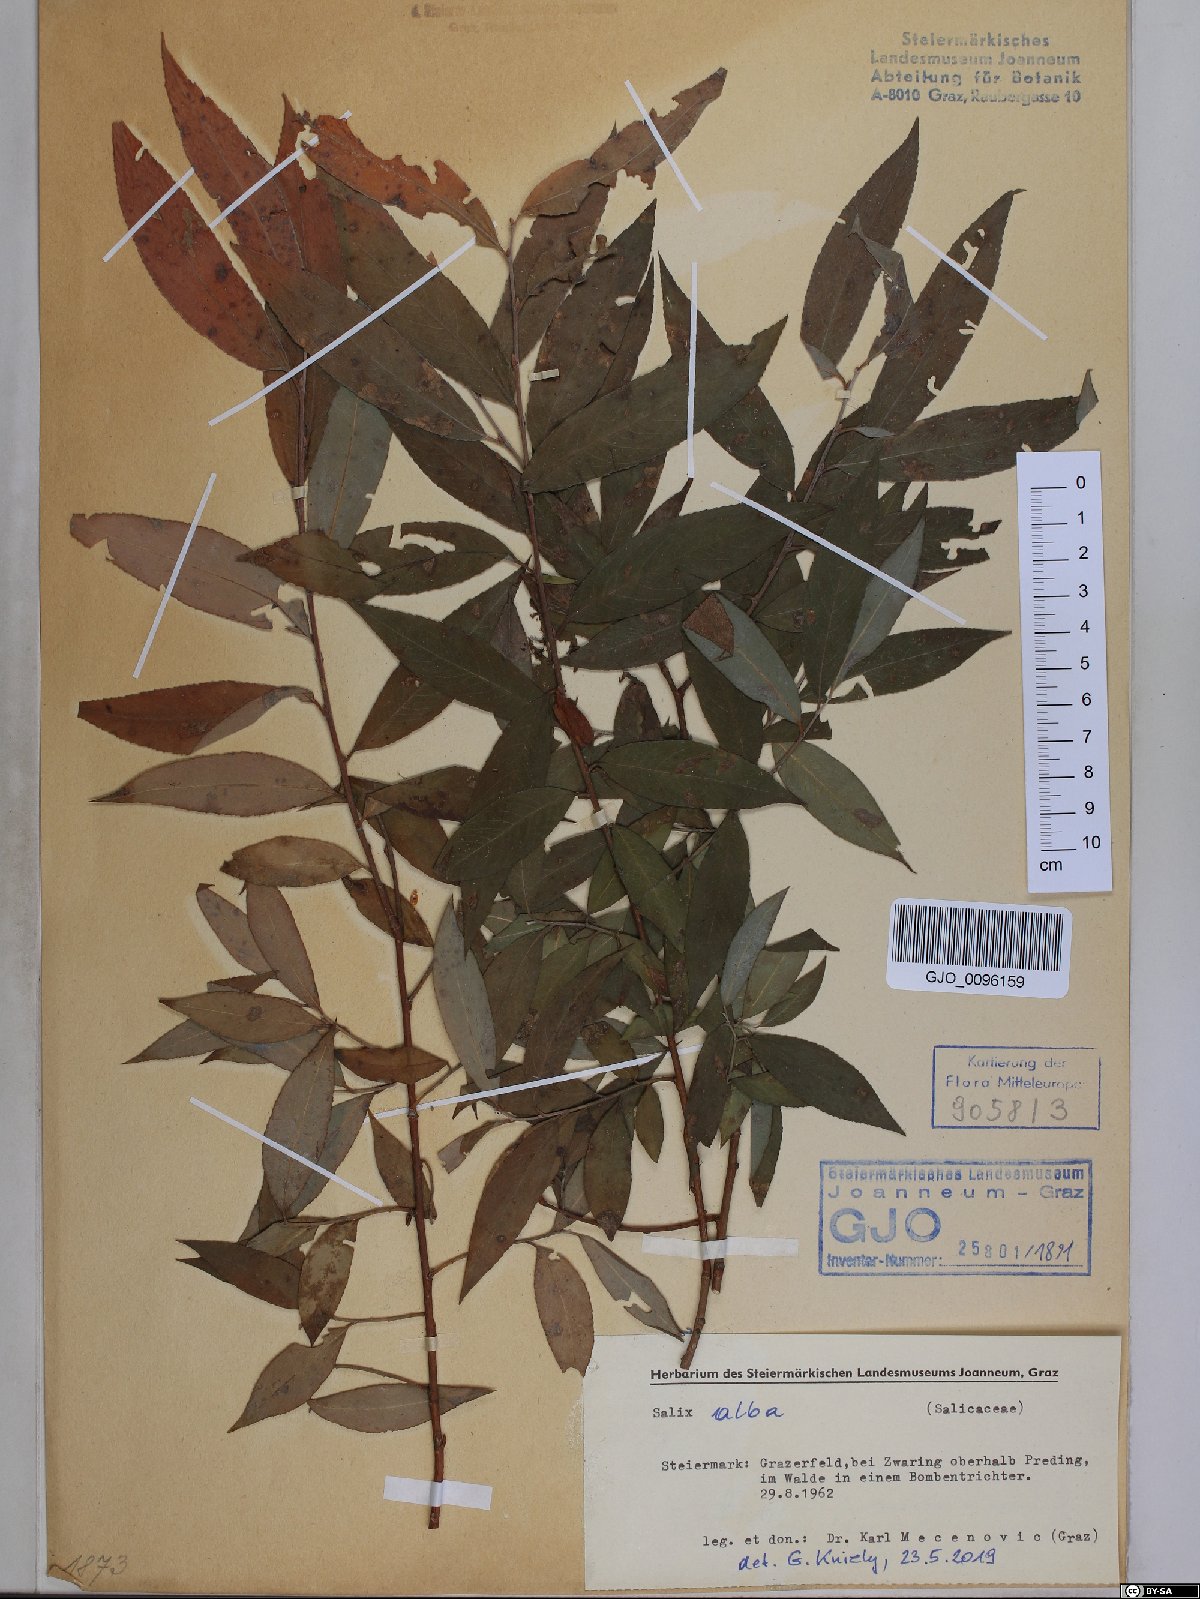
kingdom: Plantae
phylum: Tracheophyta
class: Magnoliopsida
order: Malpighiales
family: Salicaceae
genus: Salix
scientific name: Salix alba
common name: White willow
